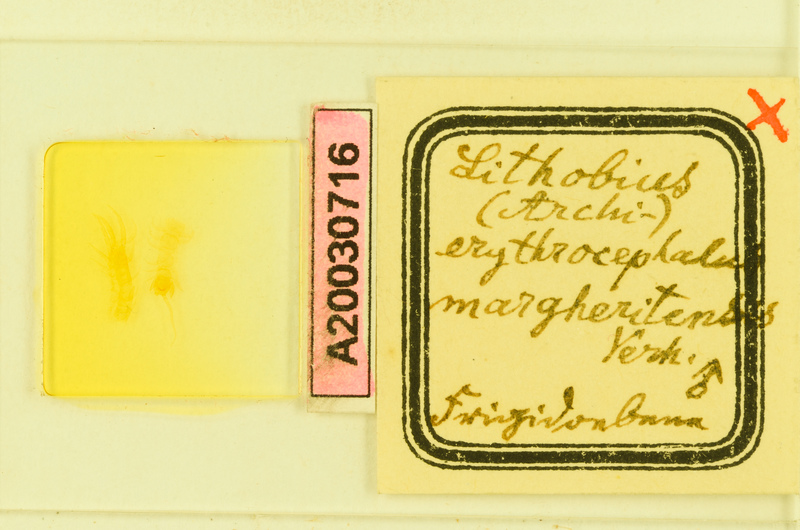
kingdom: Animalia
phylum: Arthropoda
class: Chilopoda
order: Lithobiomorpha
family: Lithobiidae
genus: Lithobius
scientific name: Lithobius erythrocephalus
